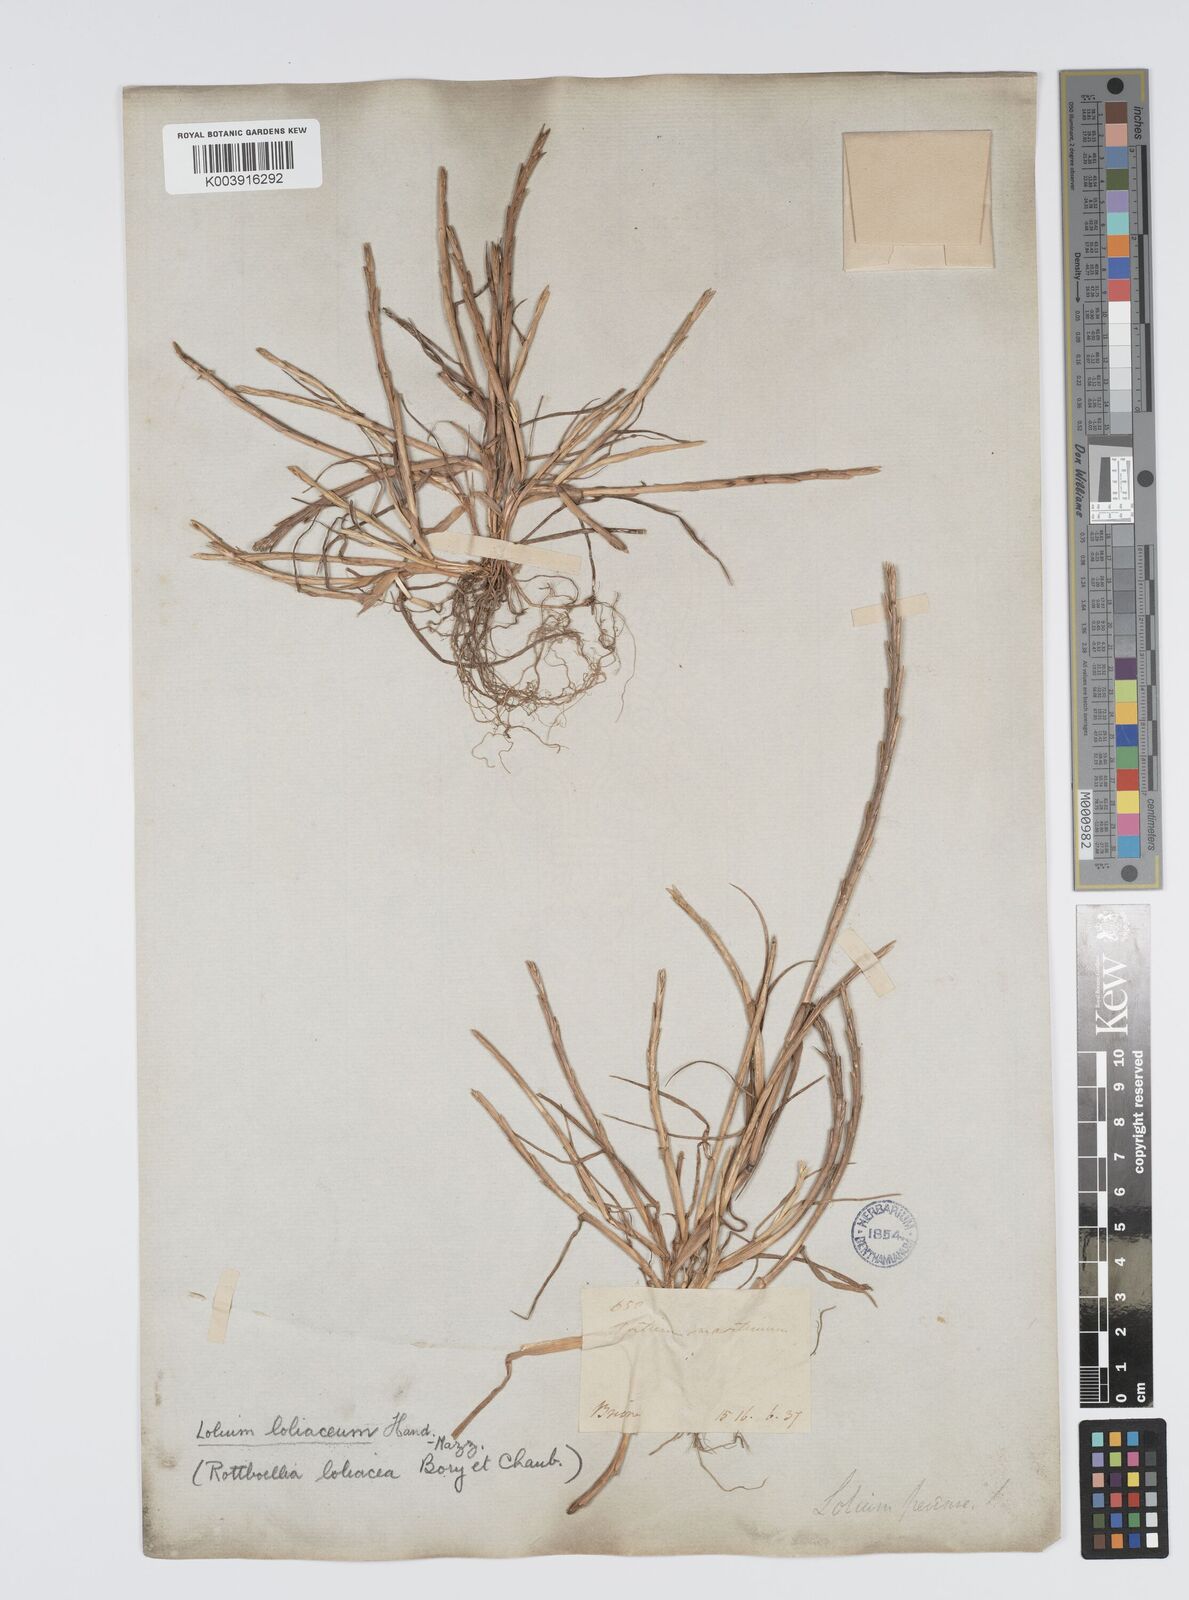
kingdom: Plantae
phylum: Tracheophyta
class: Liliopsida
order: Poales
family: Poaceae
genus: Lolium
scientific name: Lolium rigidum
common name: Wimmera ryegrass
